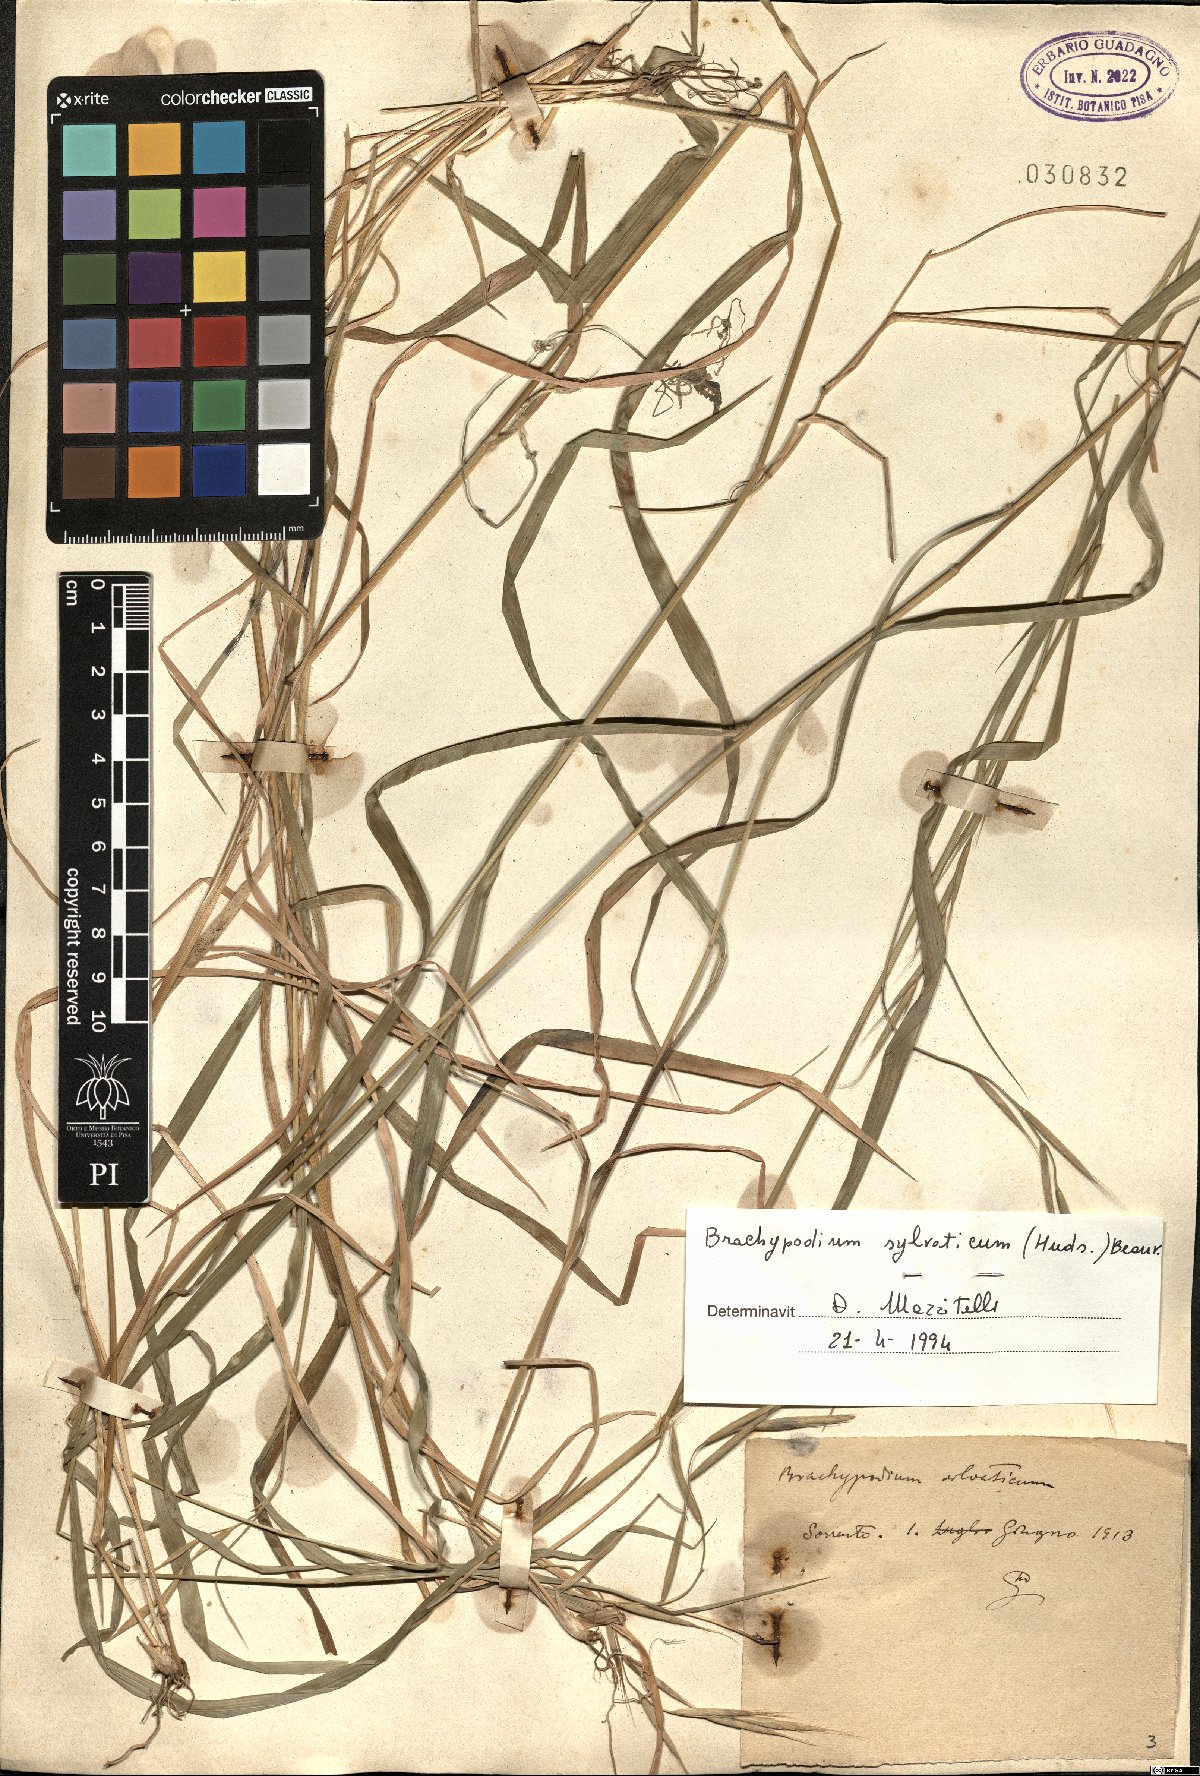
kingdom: Plantae
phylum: Tracheophyta
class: Liliopsida
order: Poales
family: Poaceae
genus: Brachypodium
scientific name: Brachypodium sylvaticum
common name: False-brome
